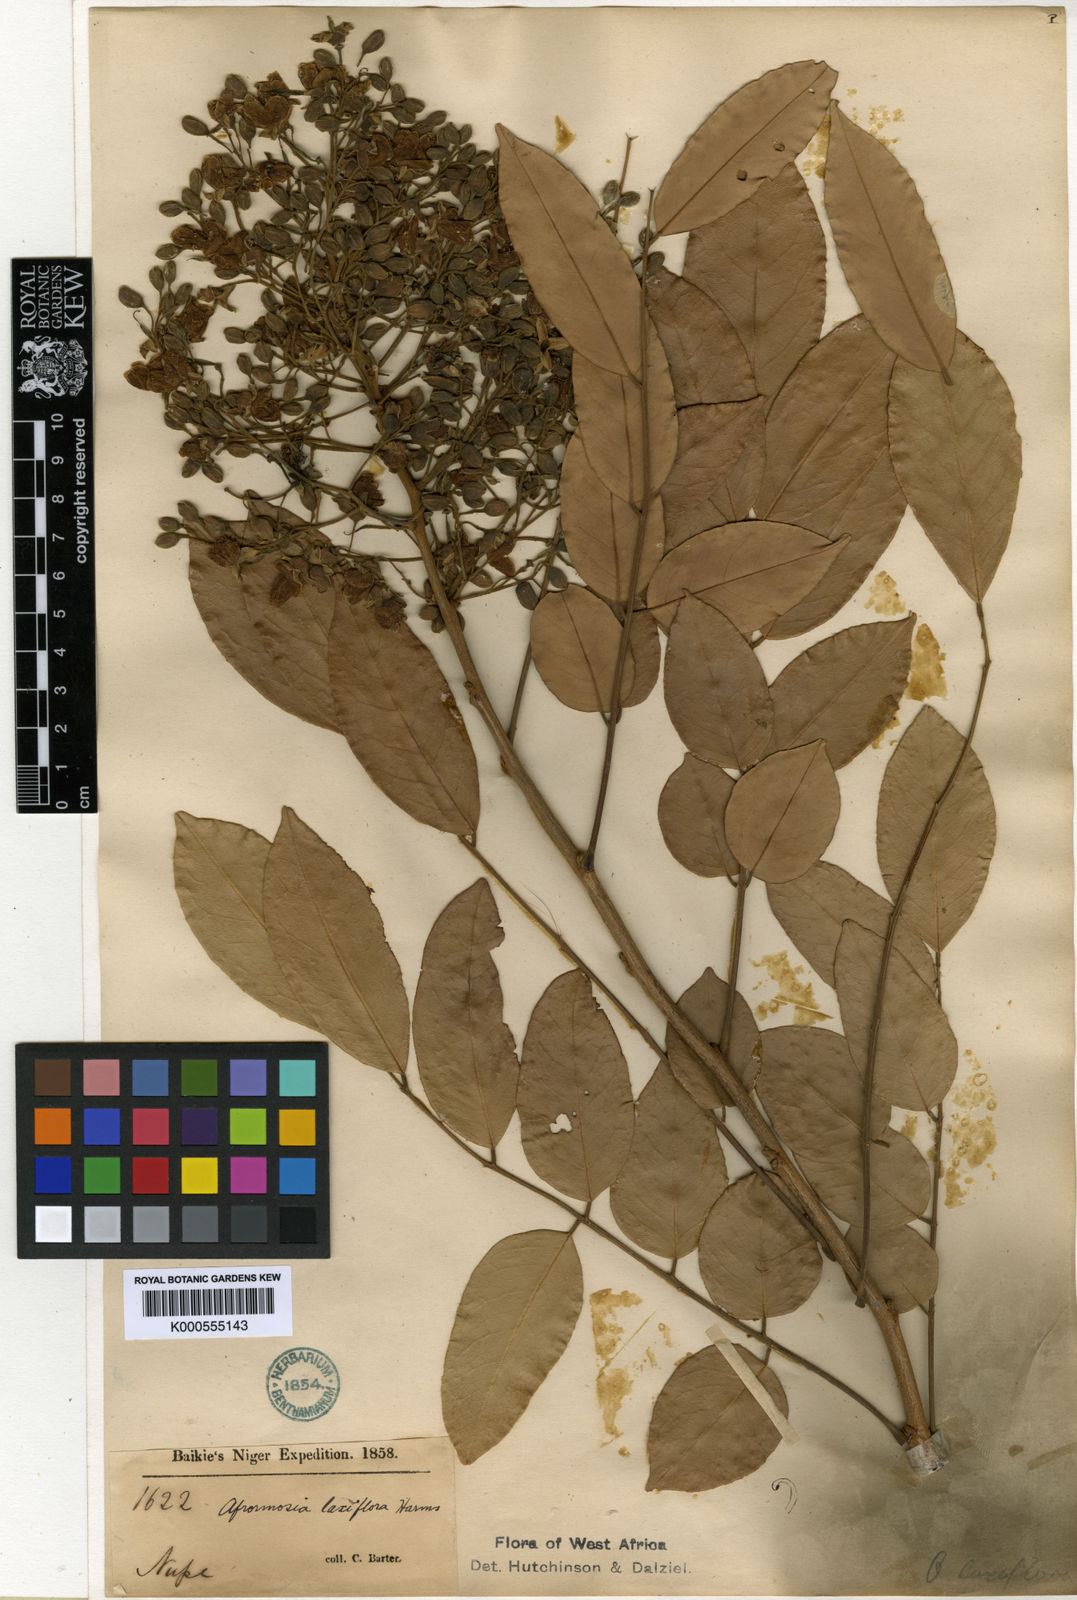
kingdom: Plantae
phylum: Tracheophyta
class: Magnoliopsida
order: Fabales
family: Fabaceae
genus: Pericopsis
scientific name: Pericopsis laxiflora
